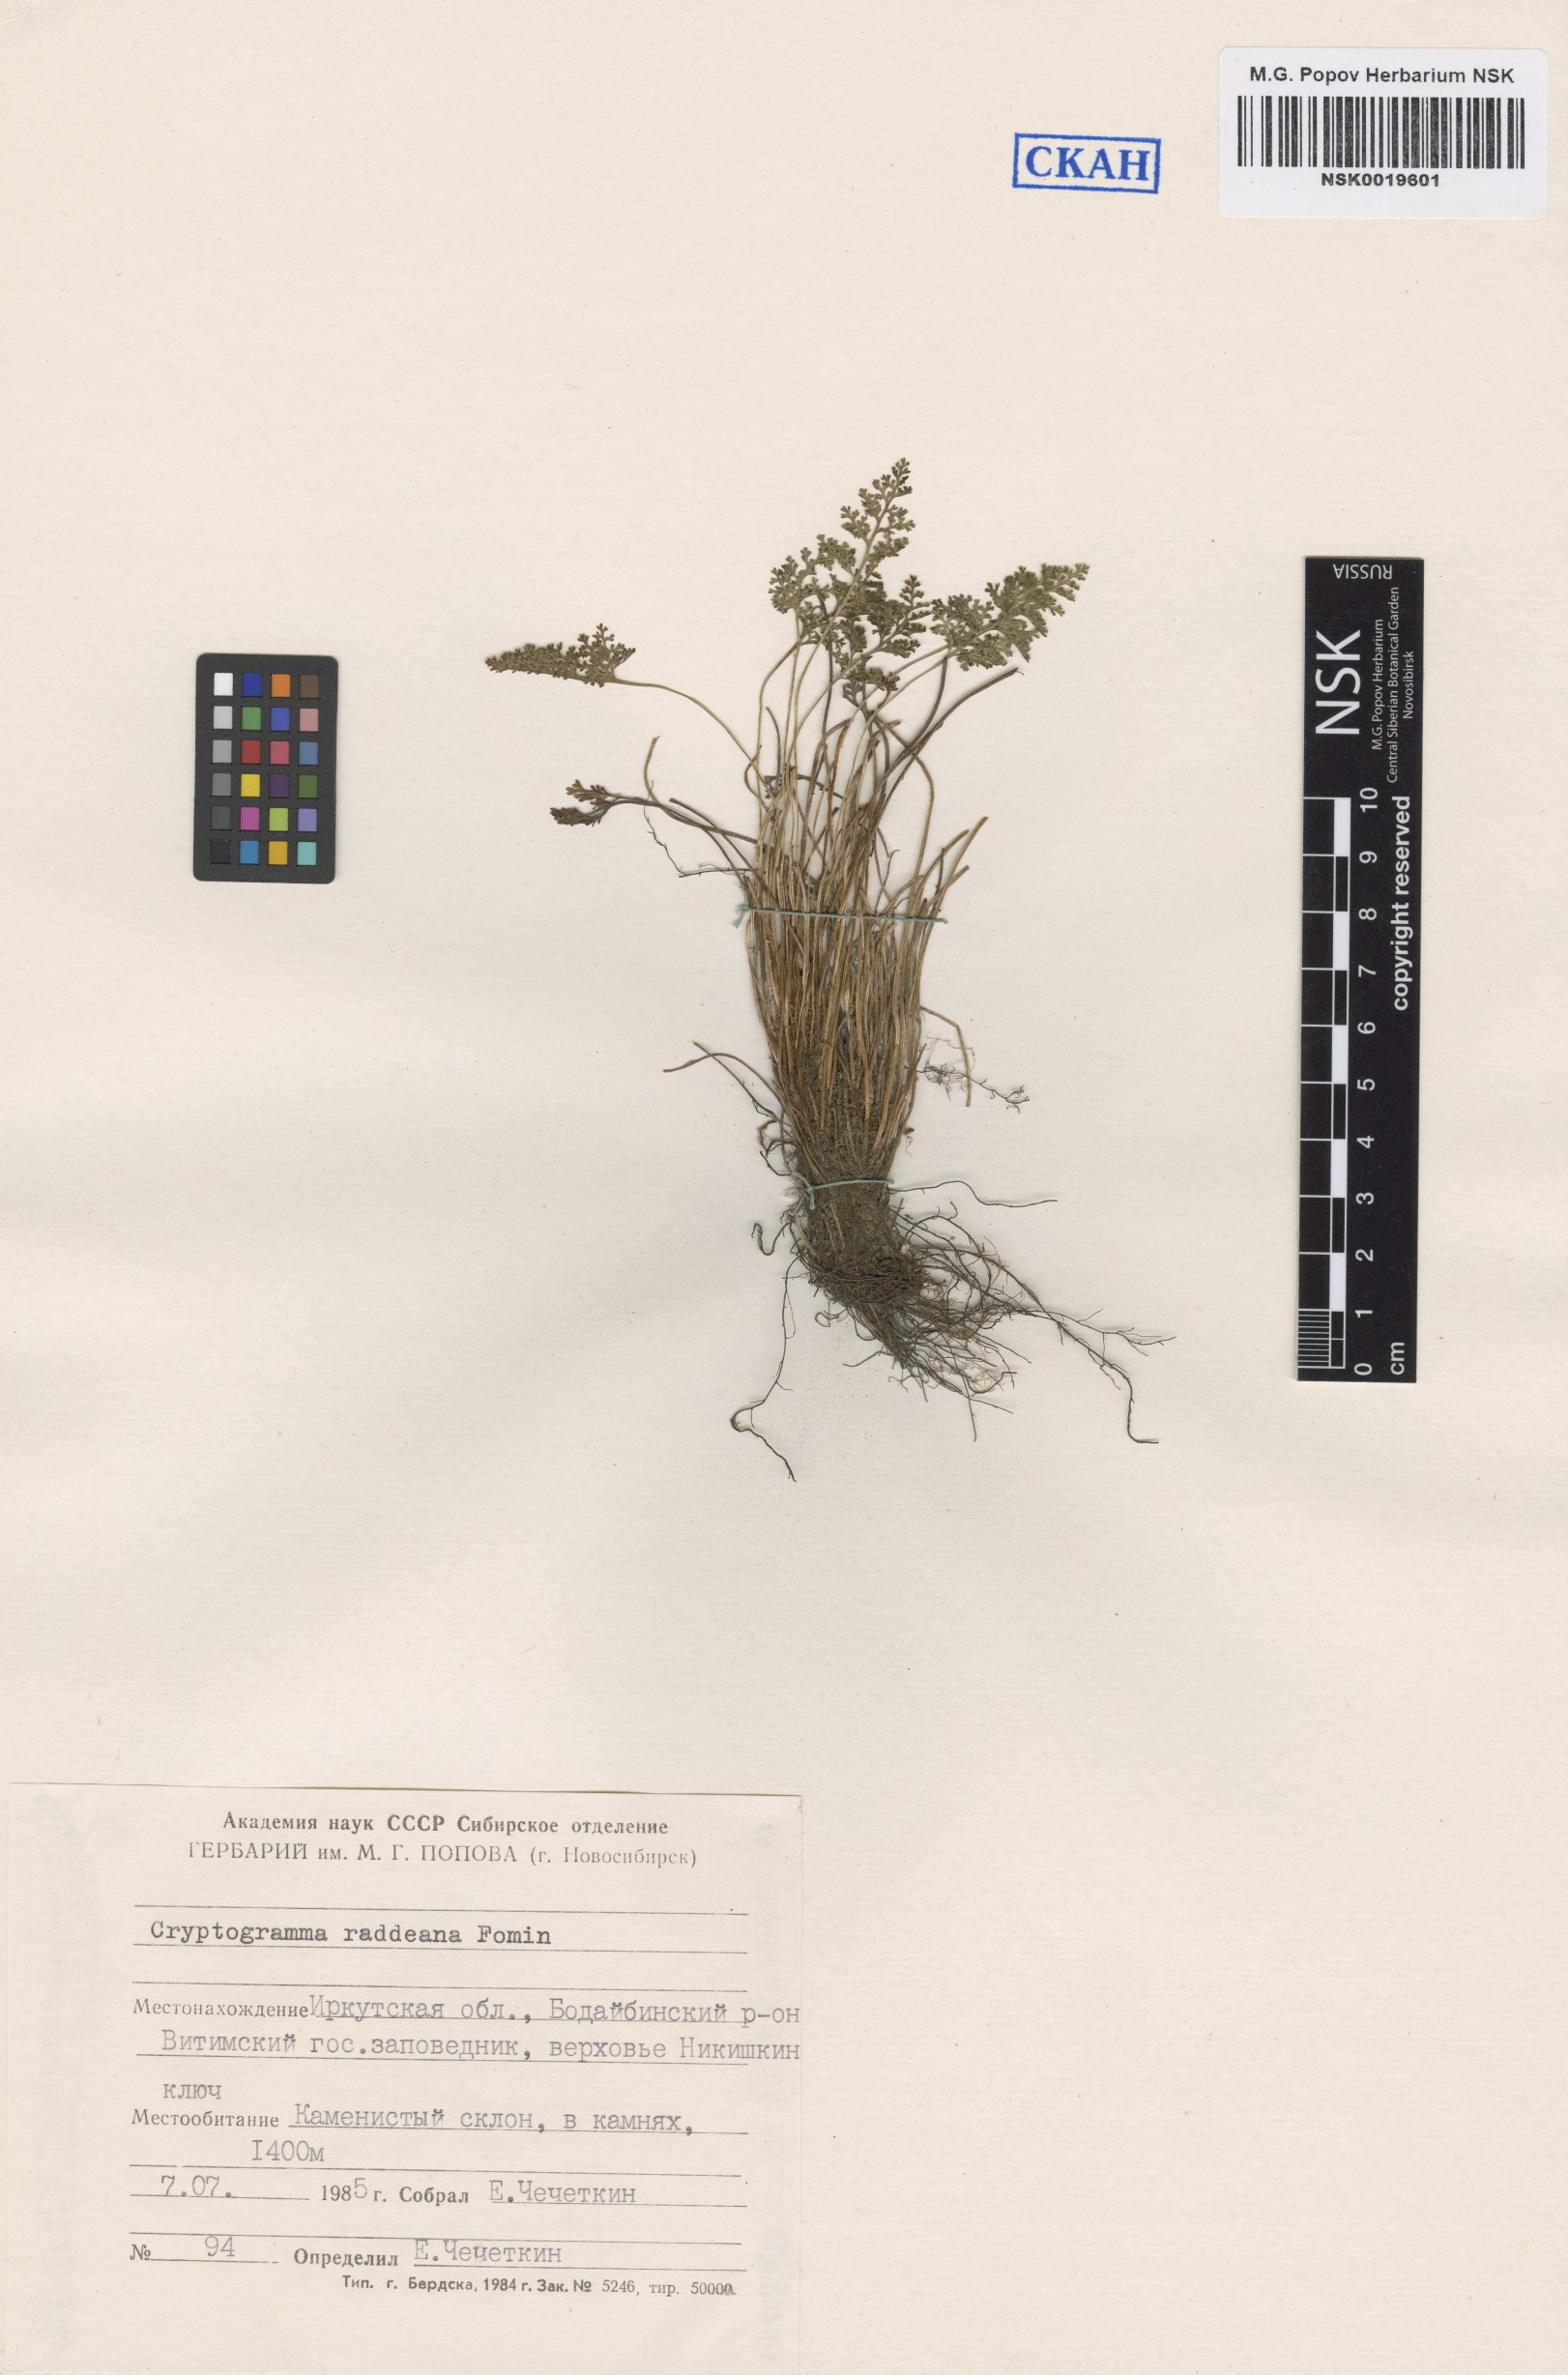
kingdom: Plantae
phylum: Tracheophyta
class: Polypodiopsida
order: Polypodiales
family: Pteridaceae
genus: Cryptogramma
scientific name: Cryptogramma brunoniana
